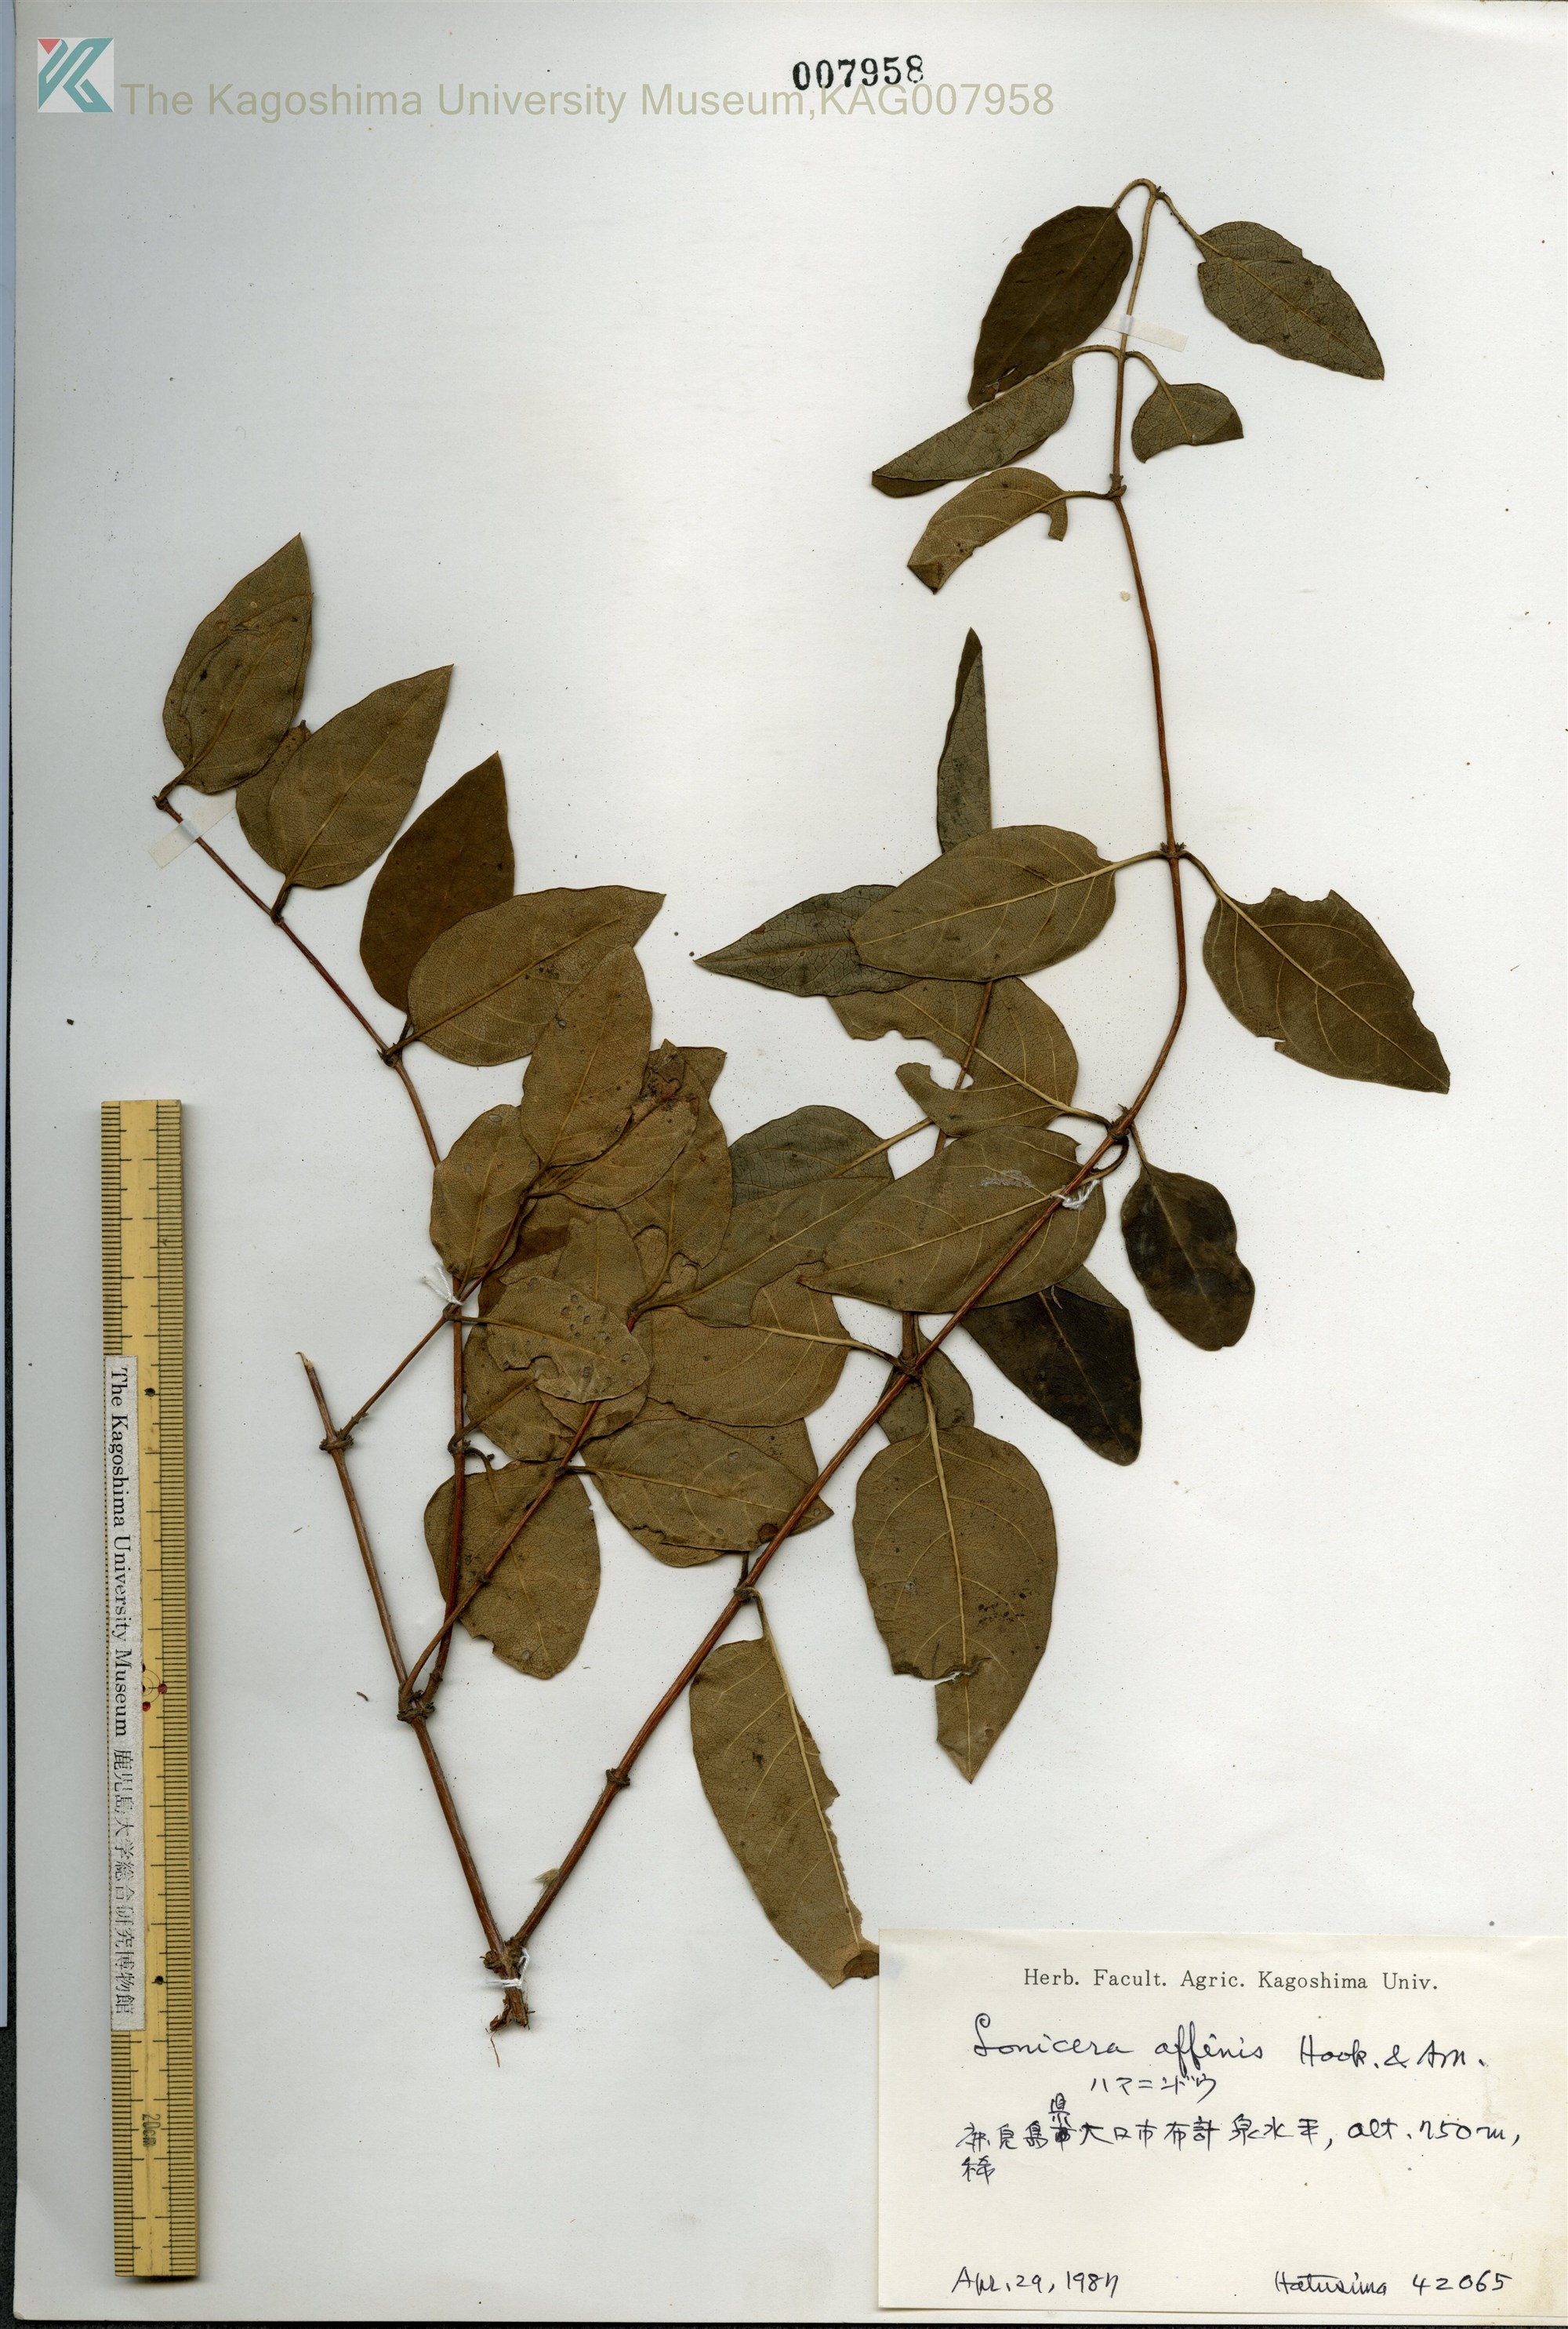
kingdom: Plantae
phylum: Tracheophyta
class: Magnoliopsida
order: Dipsacales
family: Caprifoliaceae
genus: Lonicera
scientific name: Lonicera affinis
